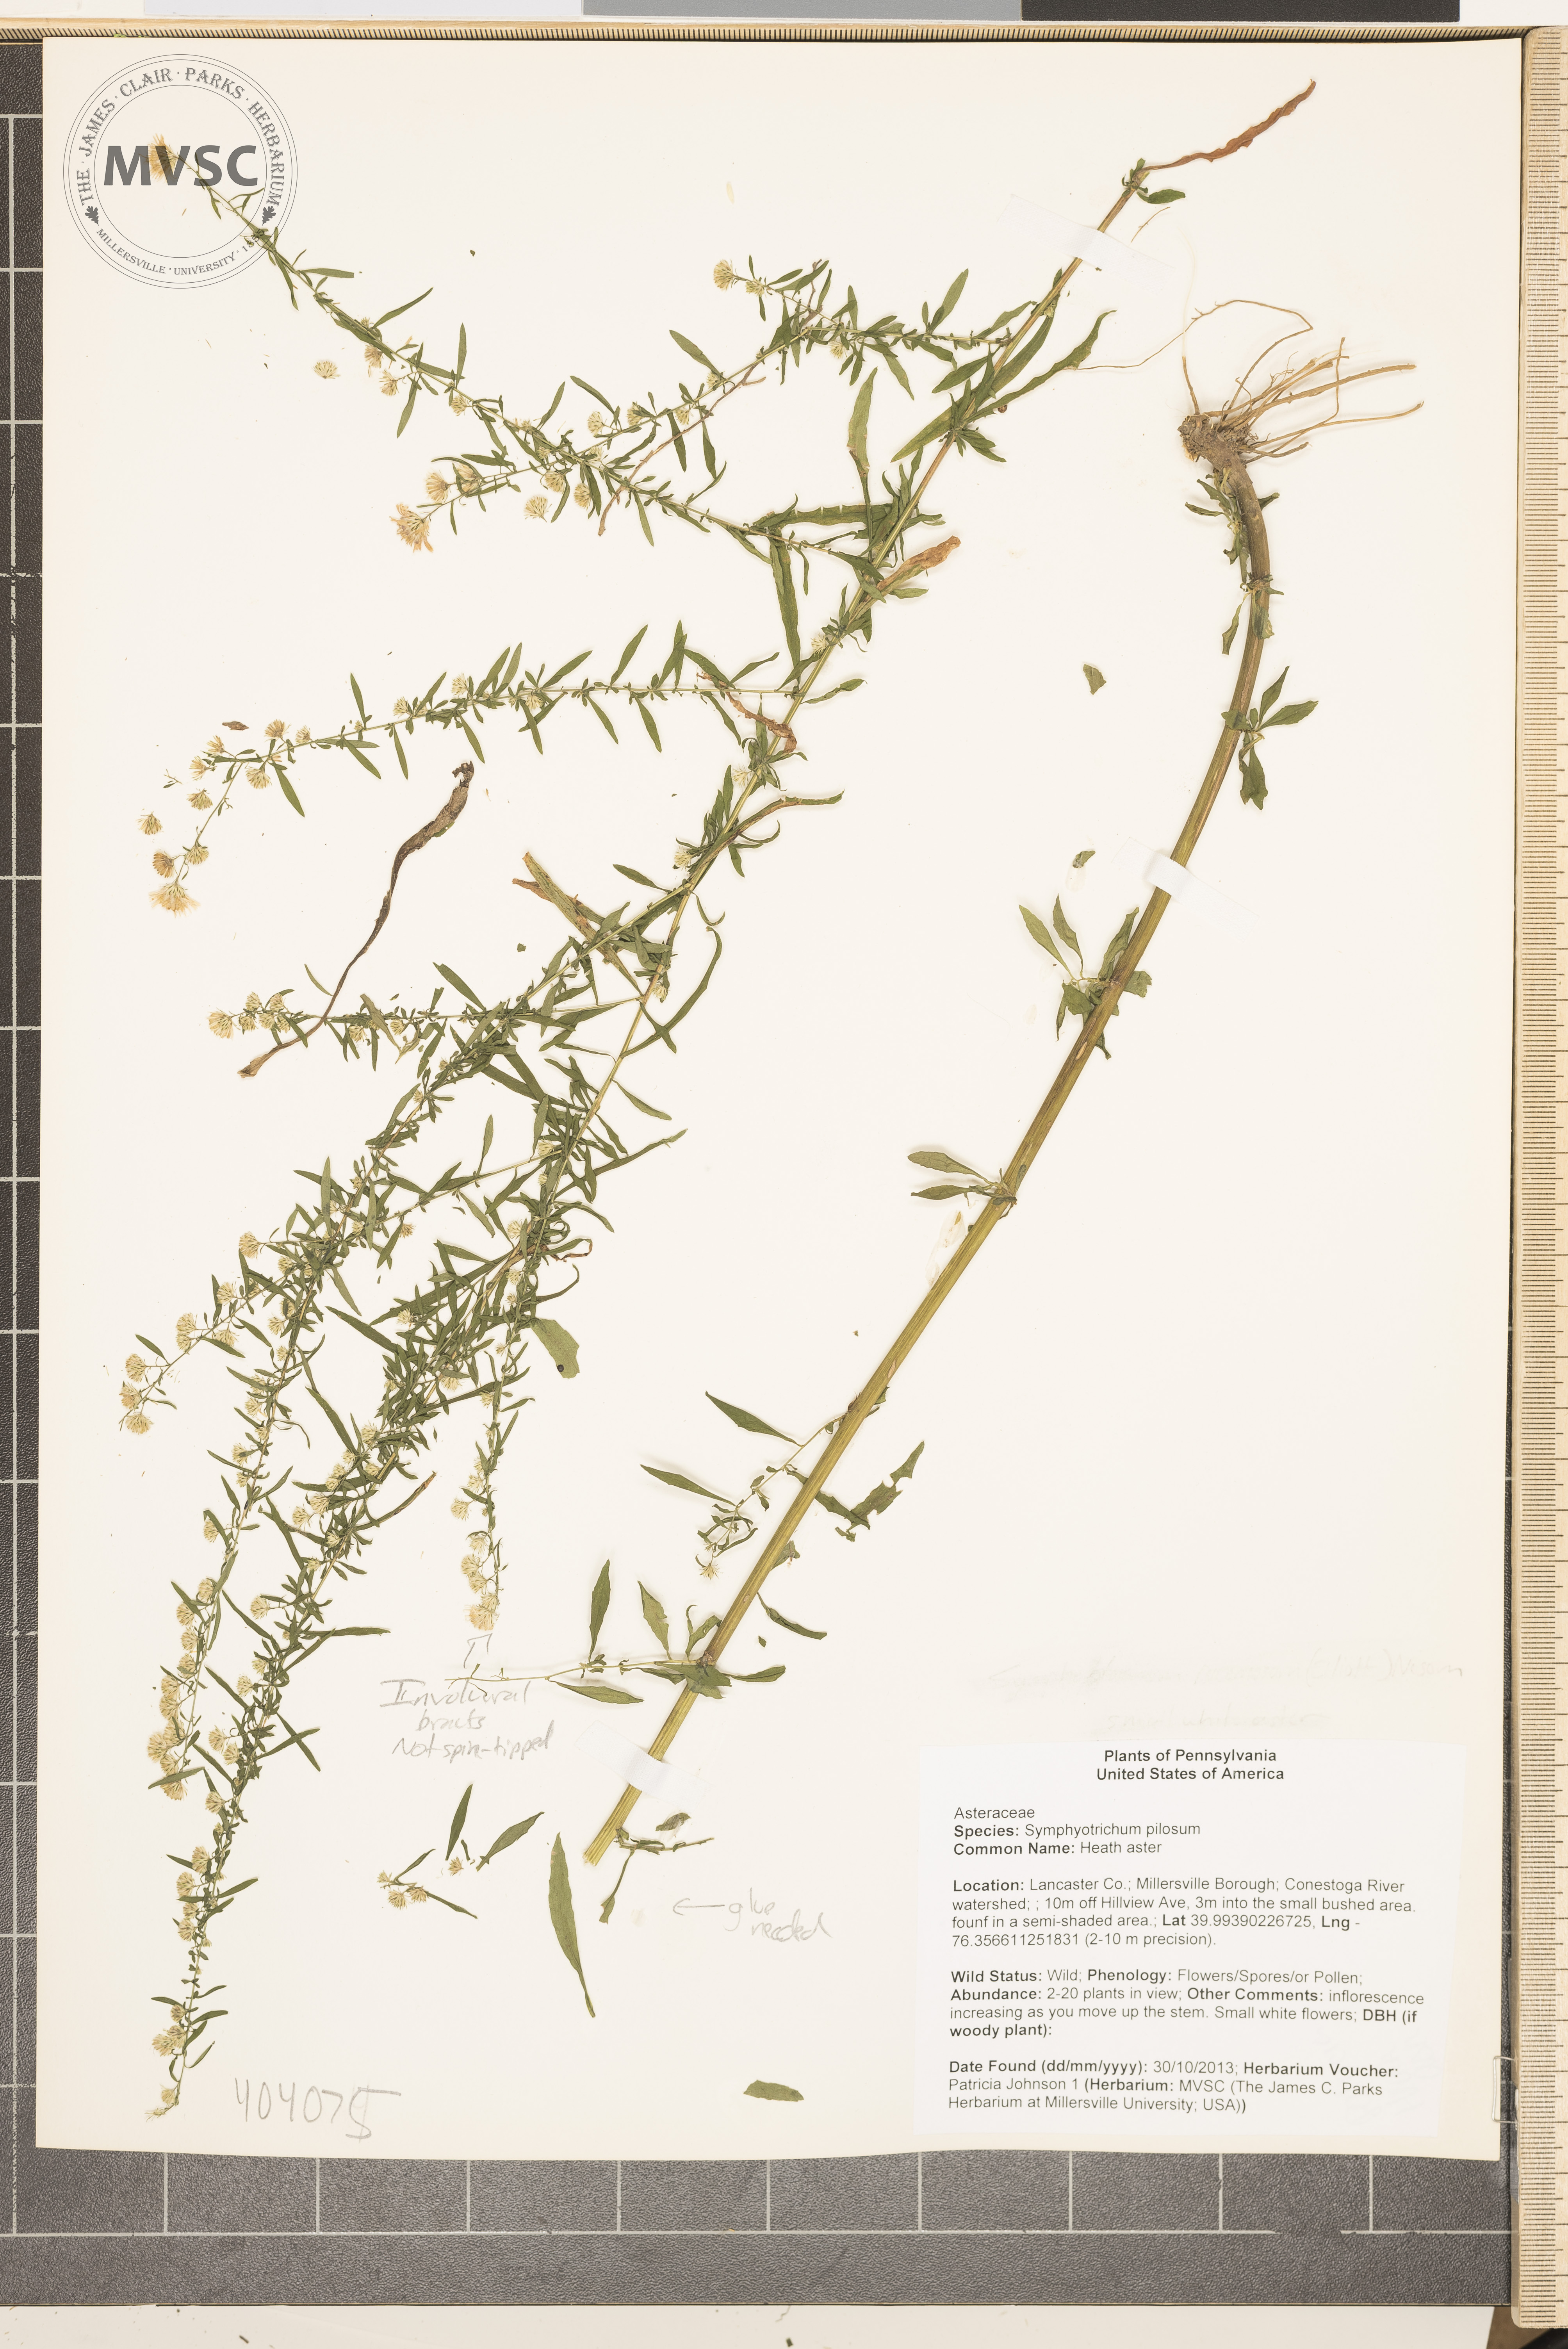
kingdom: Plantae
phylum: Tracheophyta
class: Magnoliopsida
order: Asterales
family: Asteraceae
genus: Symphyotrichum
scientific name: Symphyotrichum pilosum
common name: Heath aster
